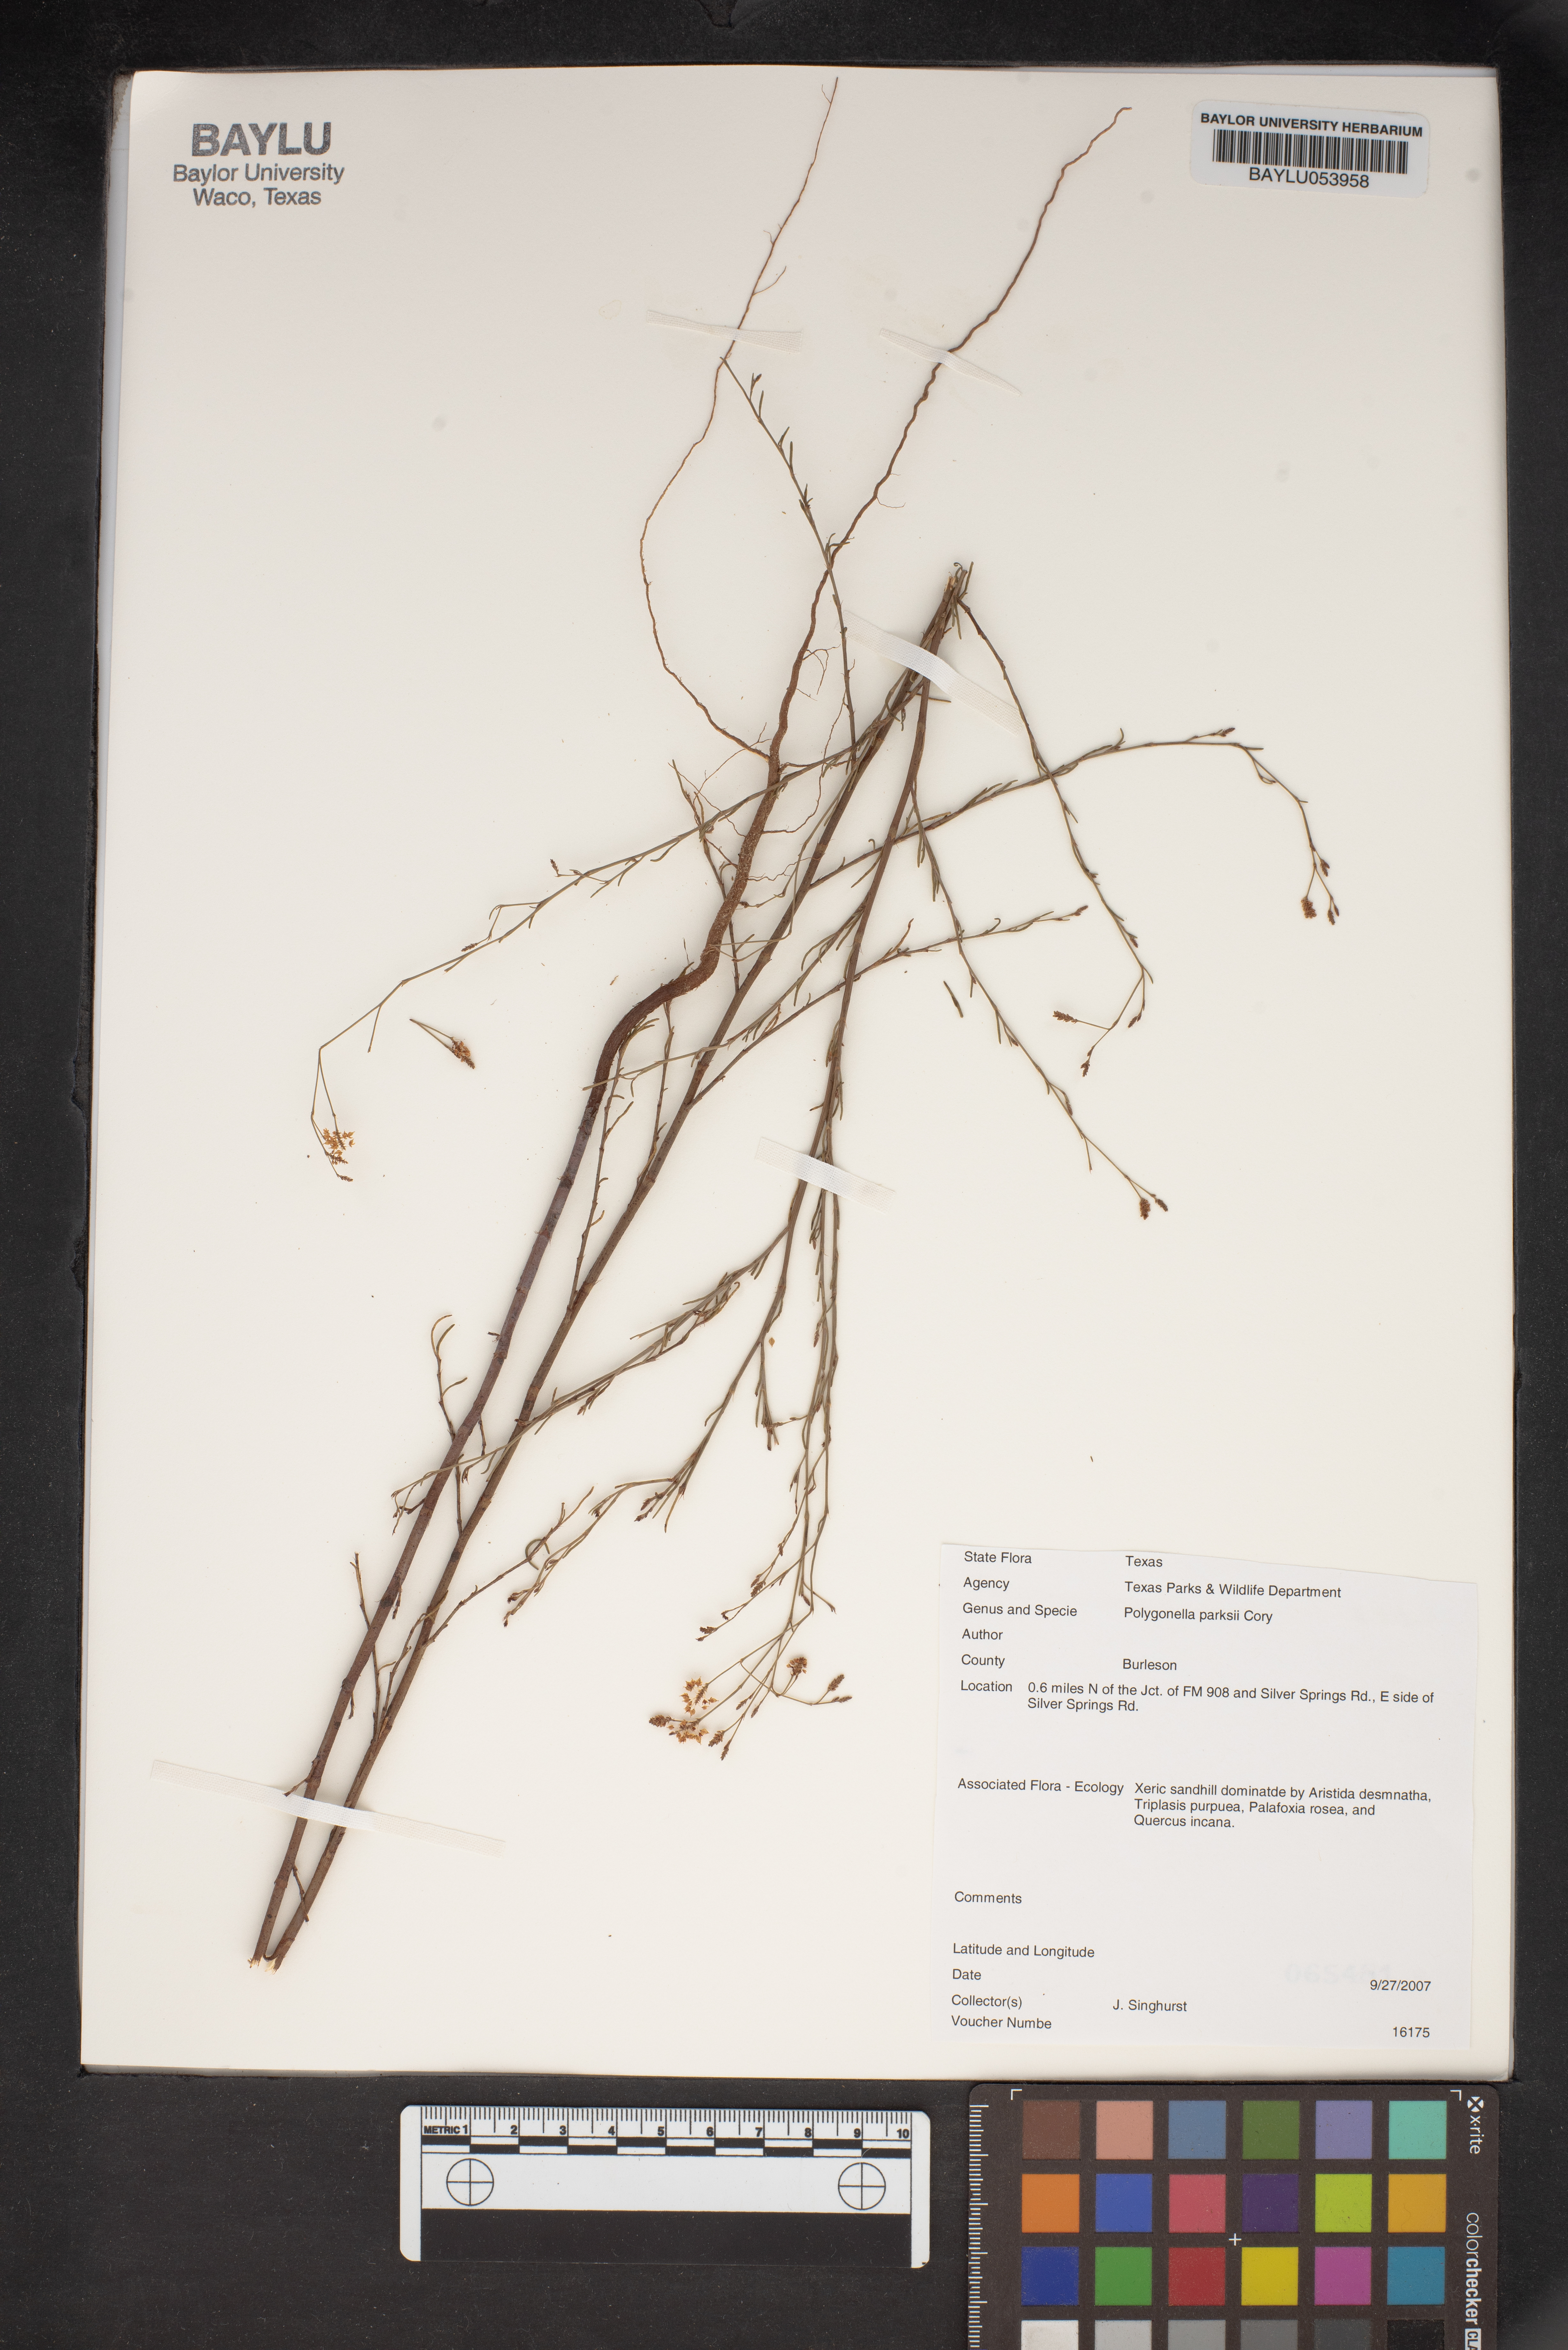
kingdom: Plantae
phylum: Tracheophyta
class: Magnoliopsida
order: Caryophyllales
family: Polygonaceae
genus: Polygonella
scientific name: Polygonella parksii
